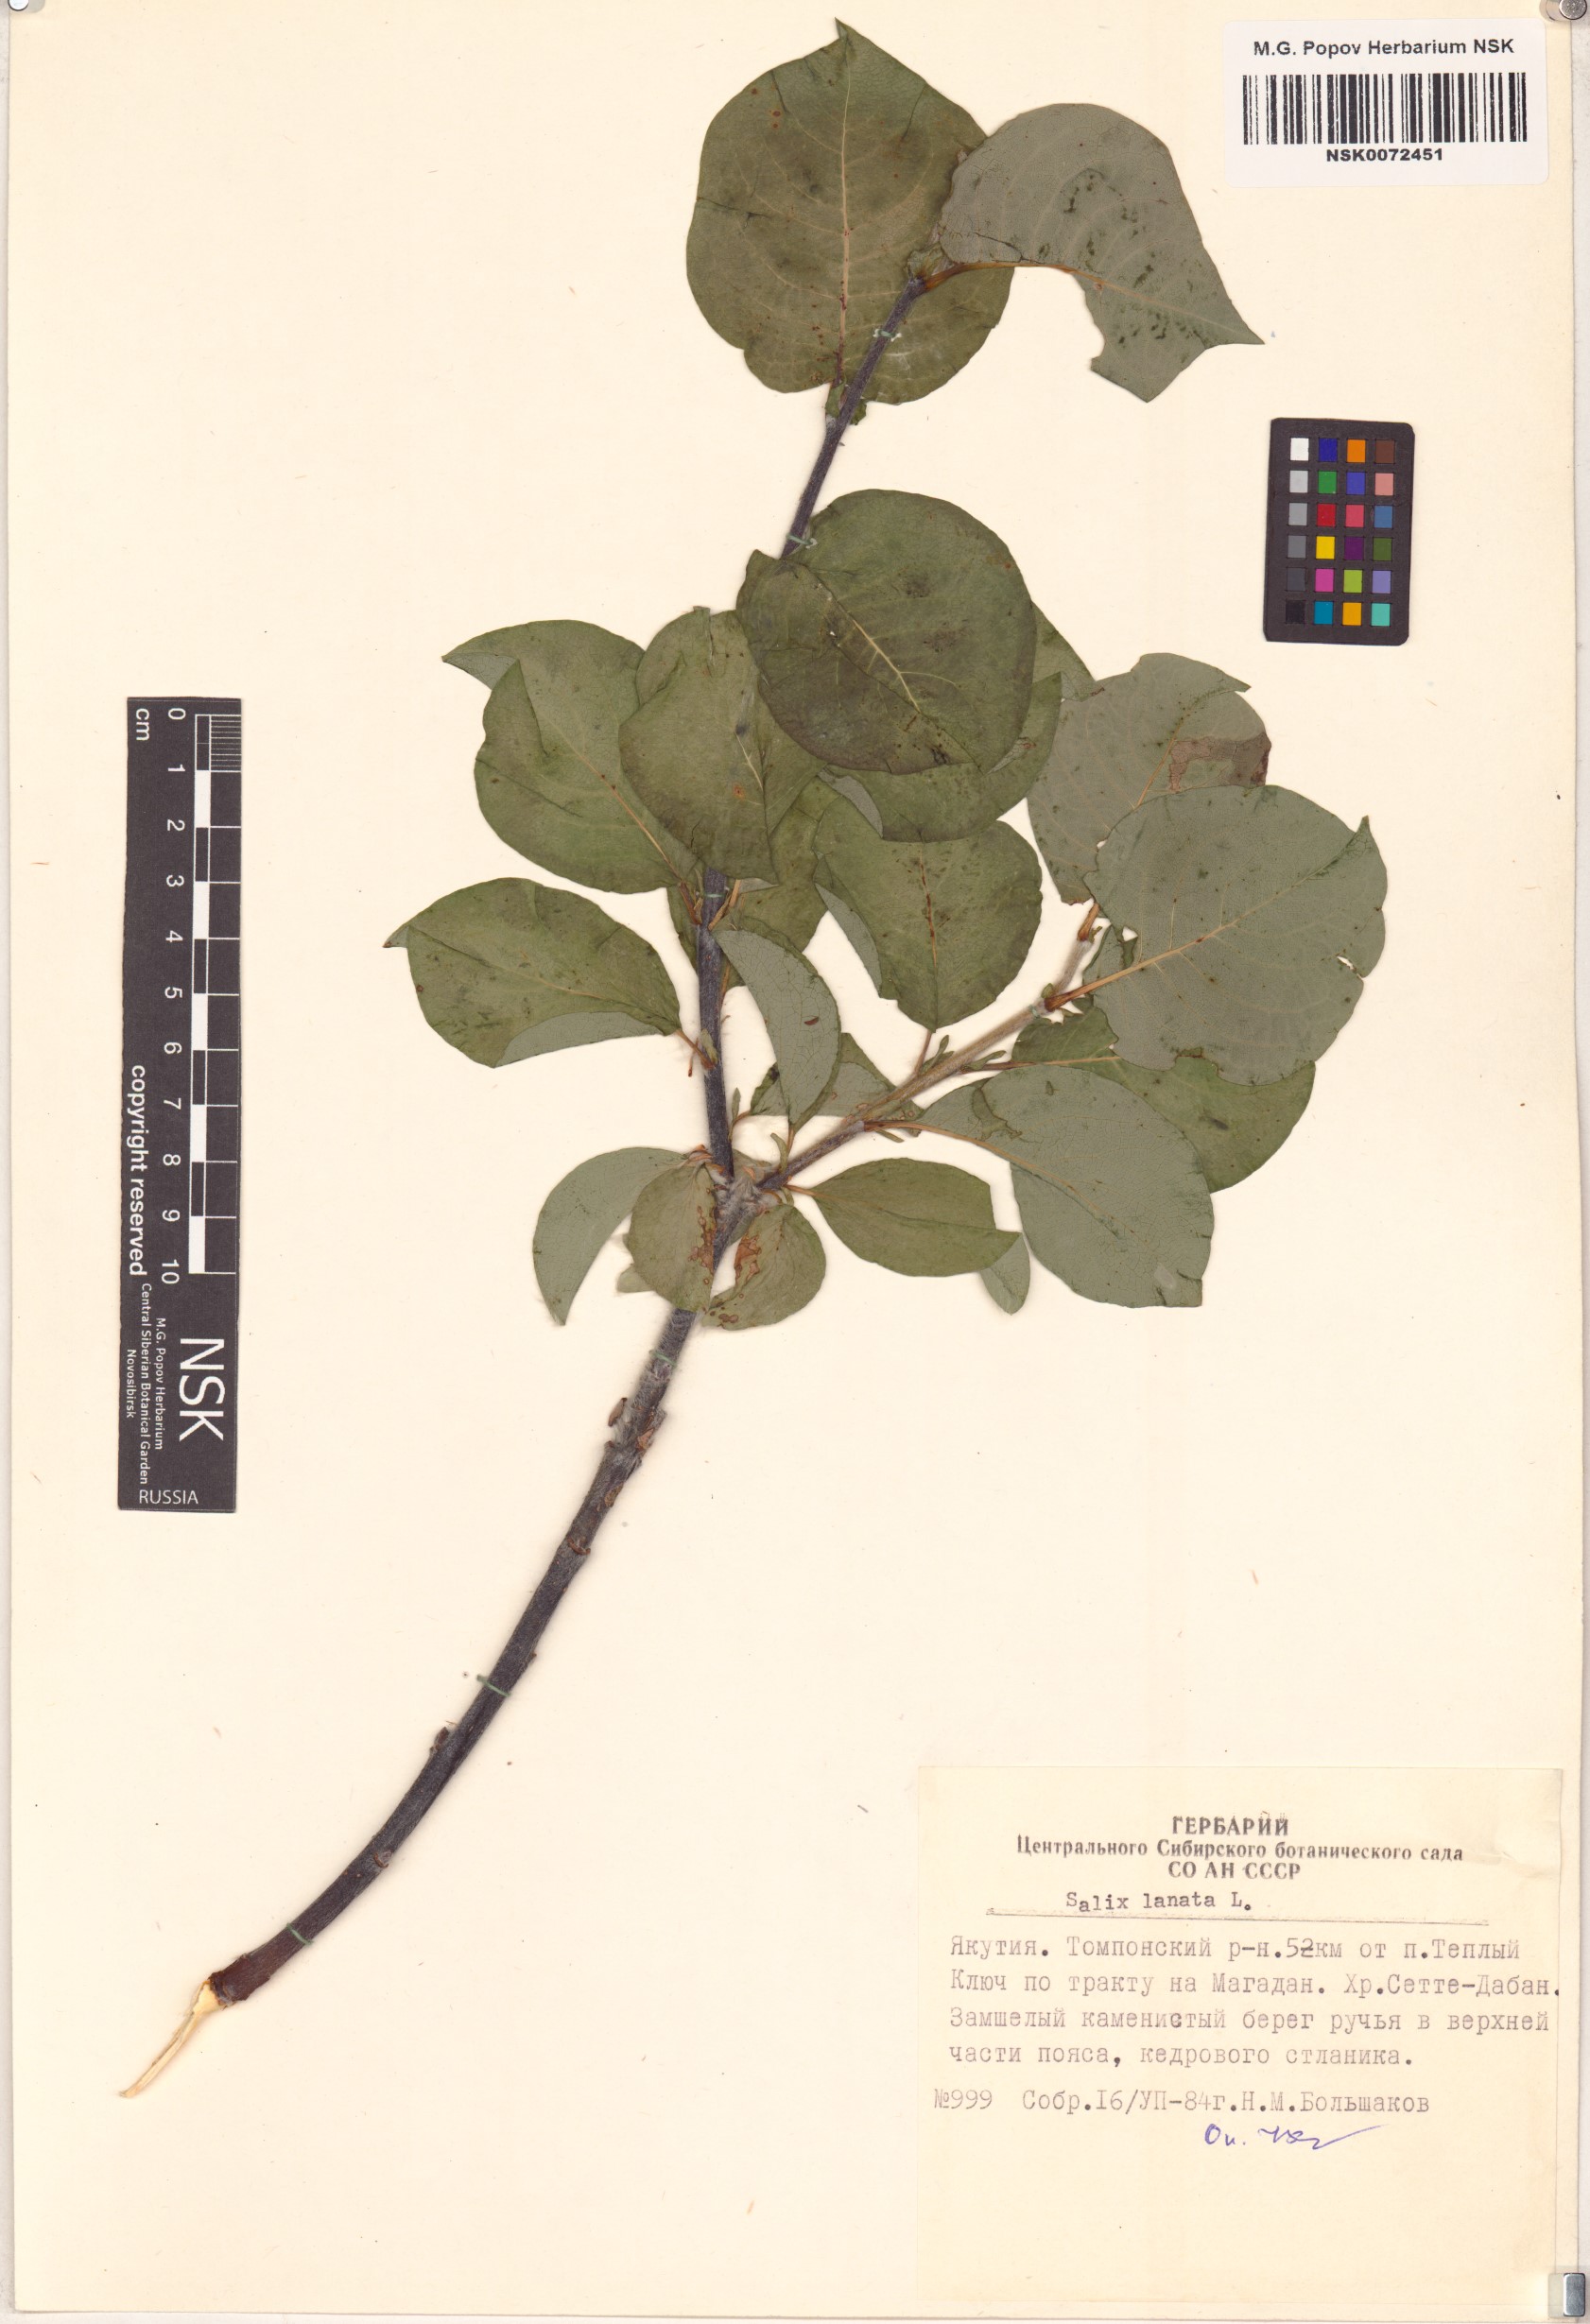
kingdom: Plantae
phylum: Tracheophyta
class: Magnoliopsida
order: Malpighiales
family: Salicaceae
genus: Salix
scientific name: Salix lanata
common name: Woolly willow
